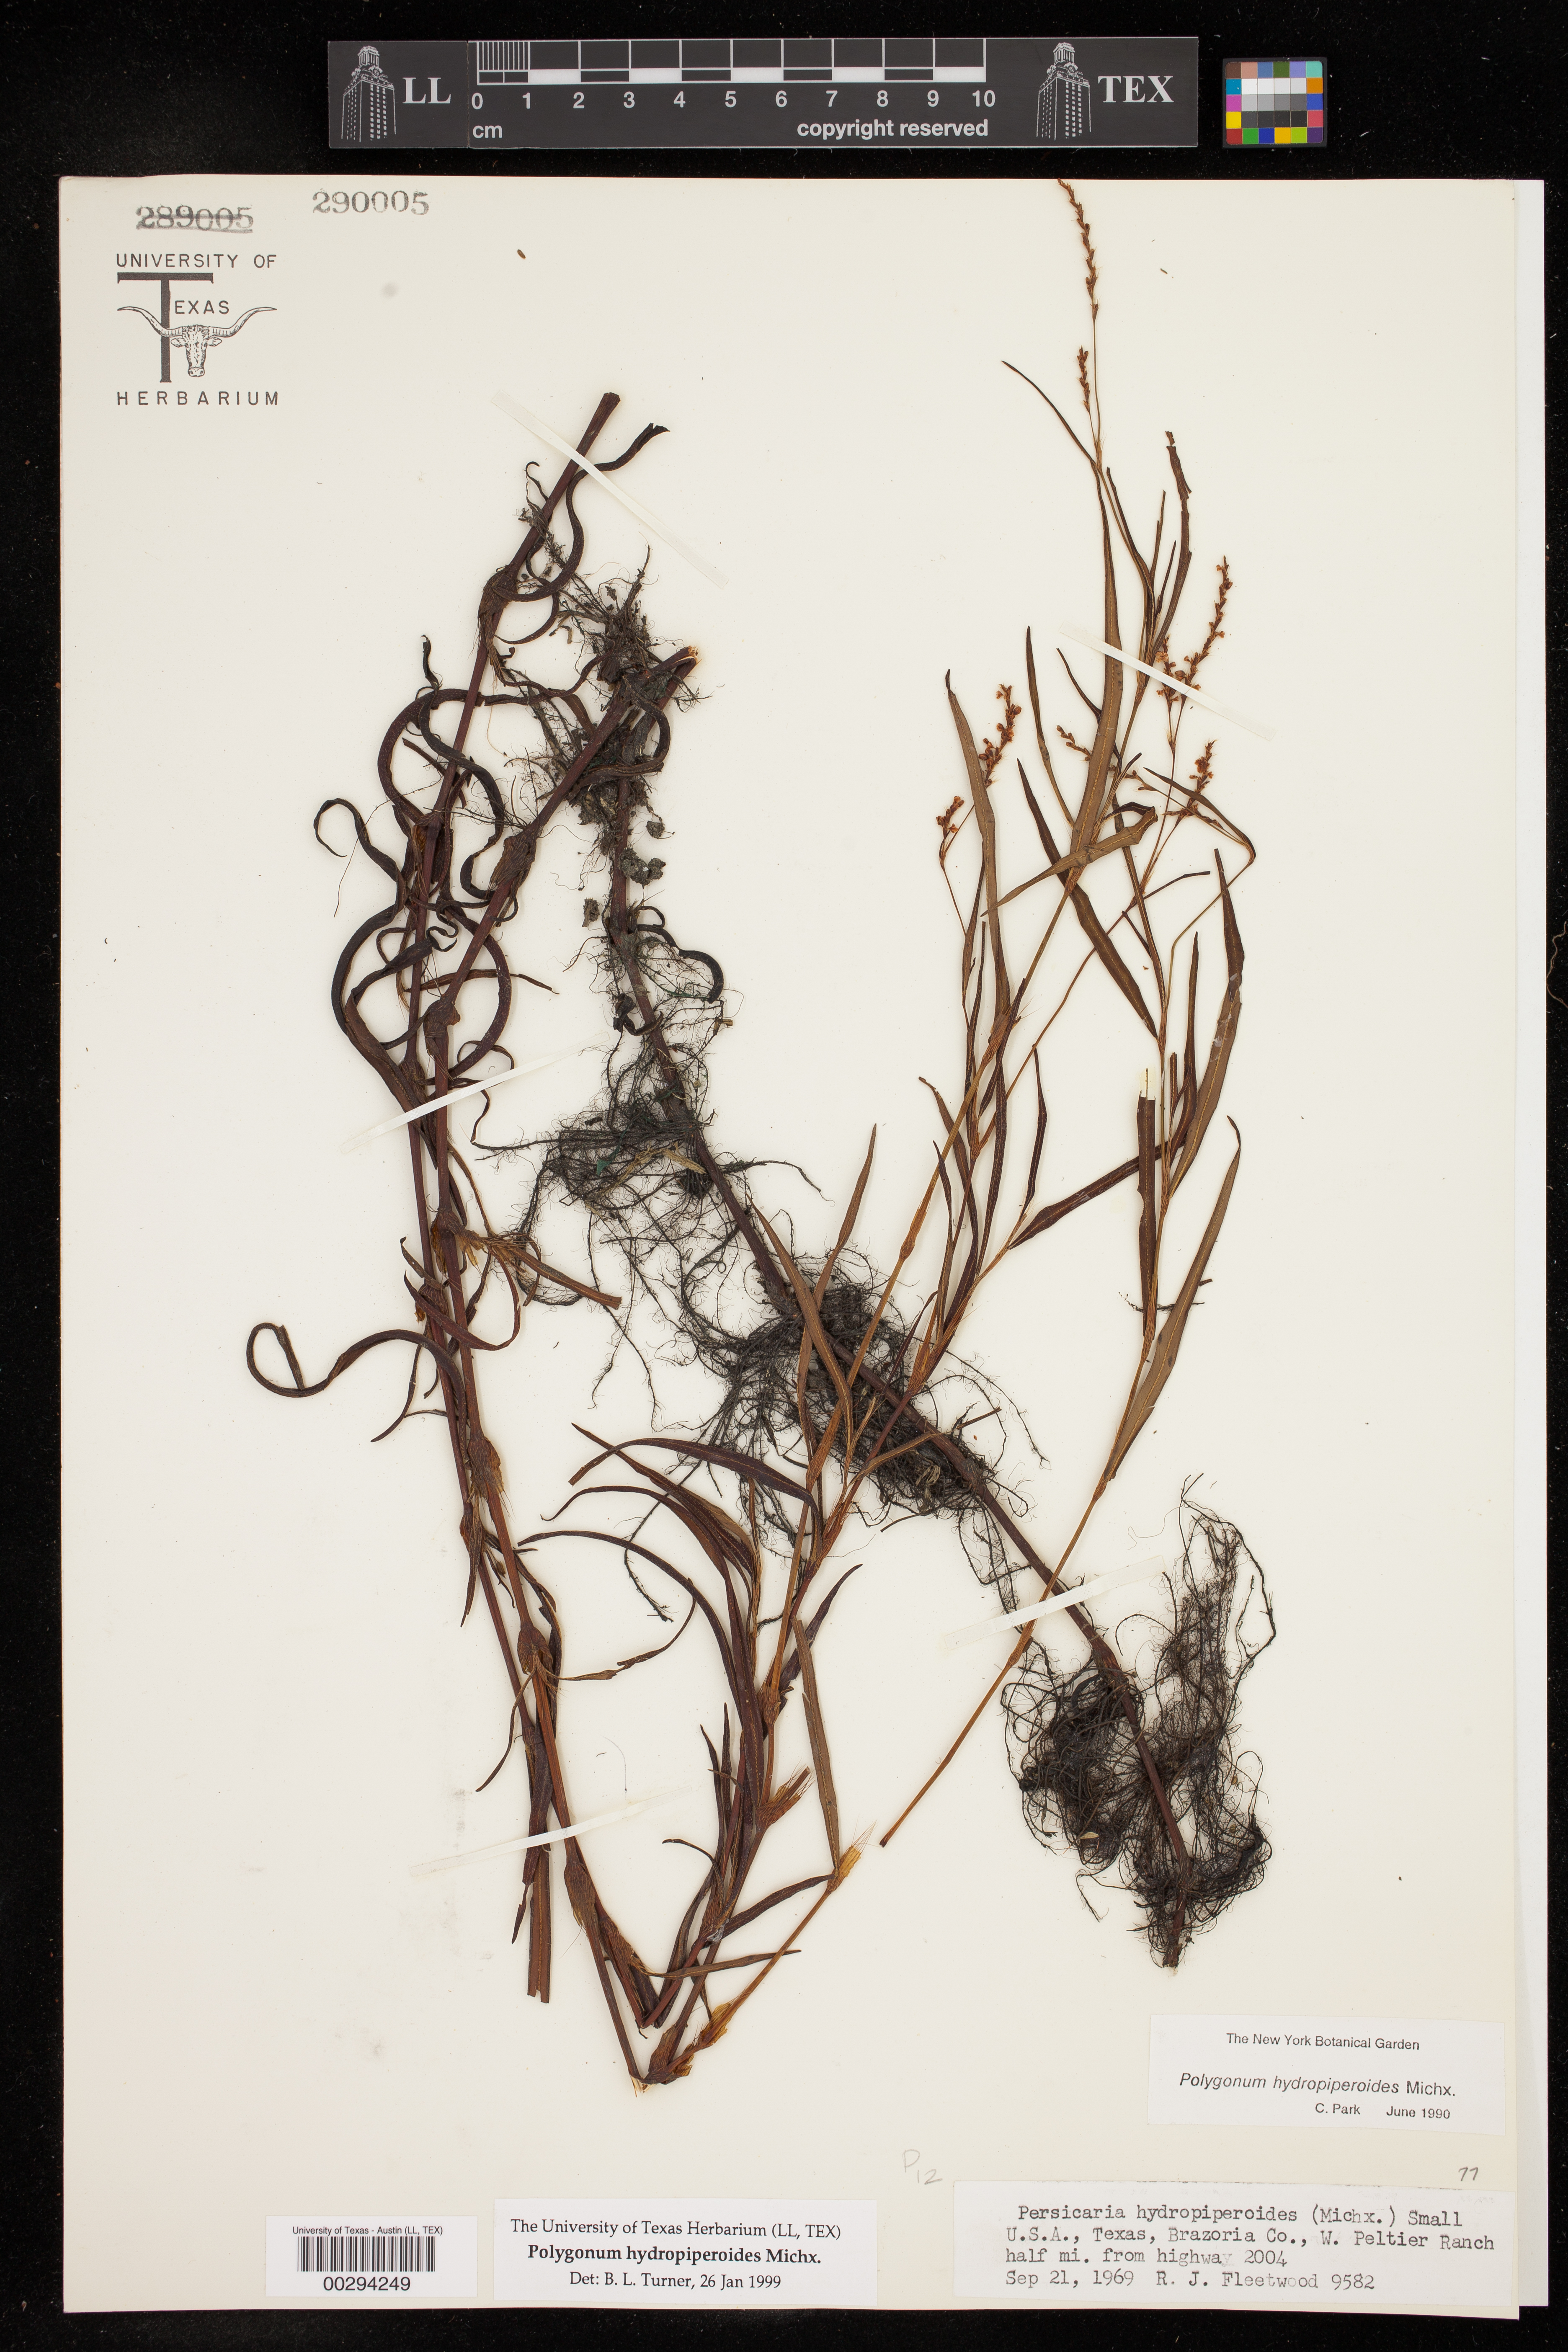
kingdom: Plantae
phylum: Tracheophyta
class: Magnoliopsida
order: Caryophyllales
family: Polygonaceae
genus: Persicaria
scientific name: Persicaria hydropiperoides
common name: Swamp smartweed
